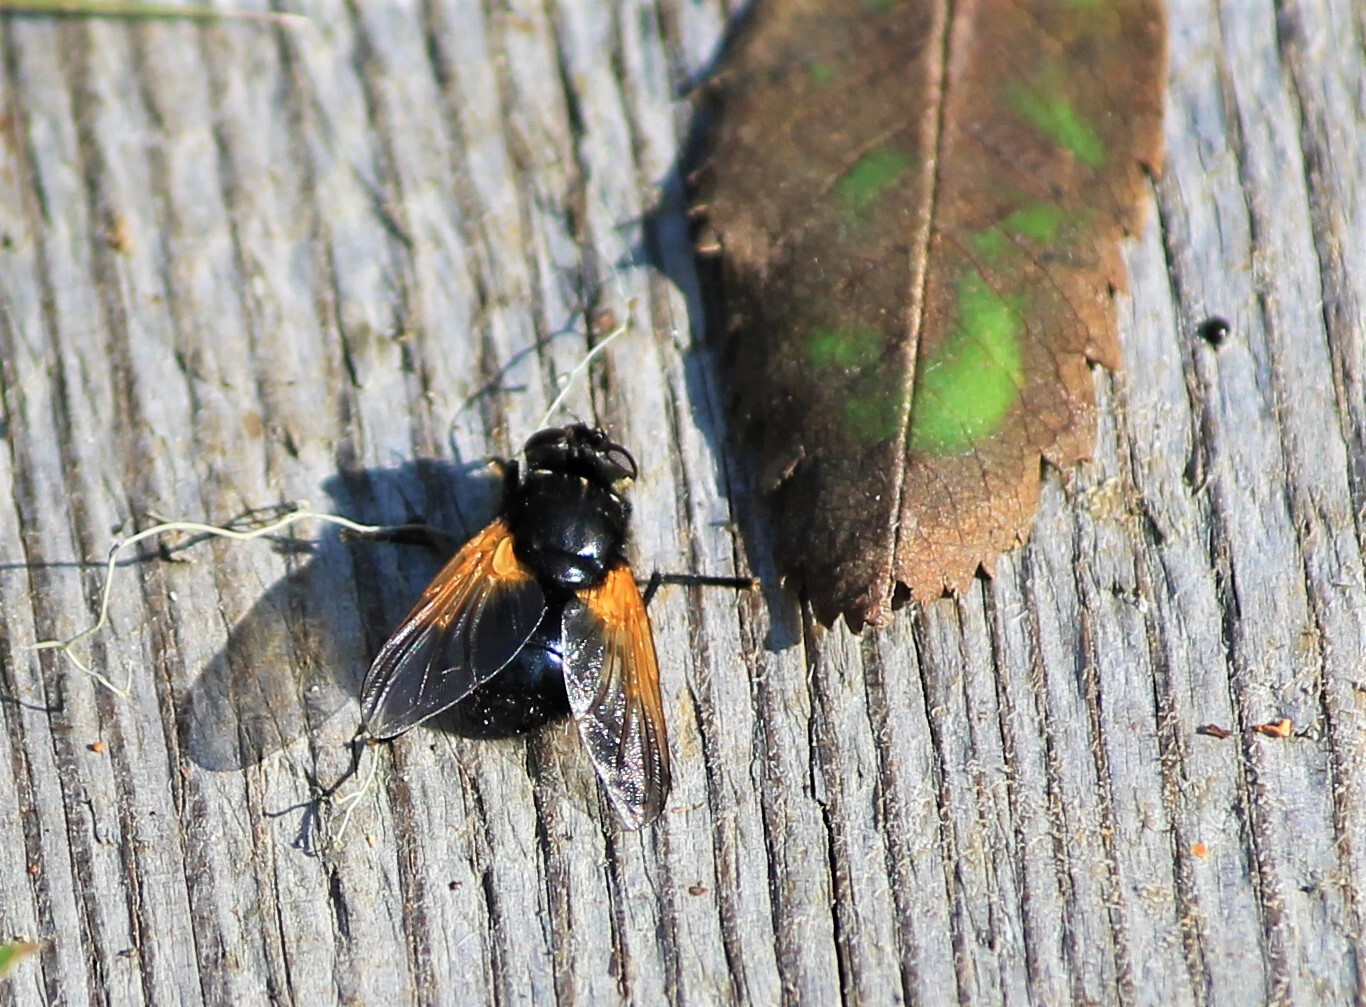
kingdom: Animalia
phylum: Arthropoda
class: Insecta
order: Diptera
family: Muscidae
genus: Mesembrina
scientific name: Mesembrina meridiana
